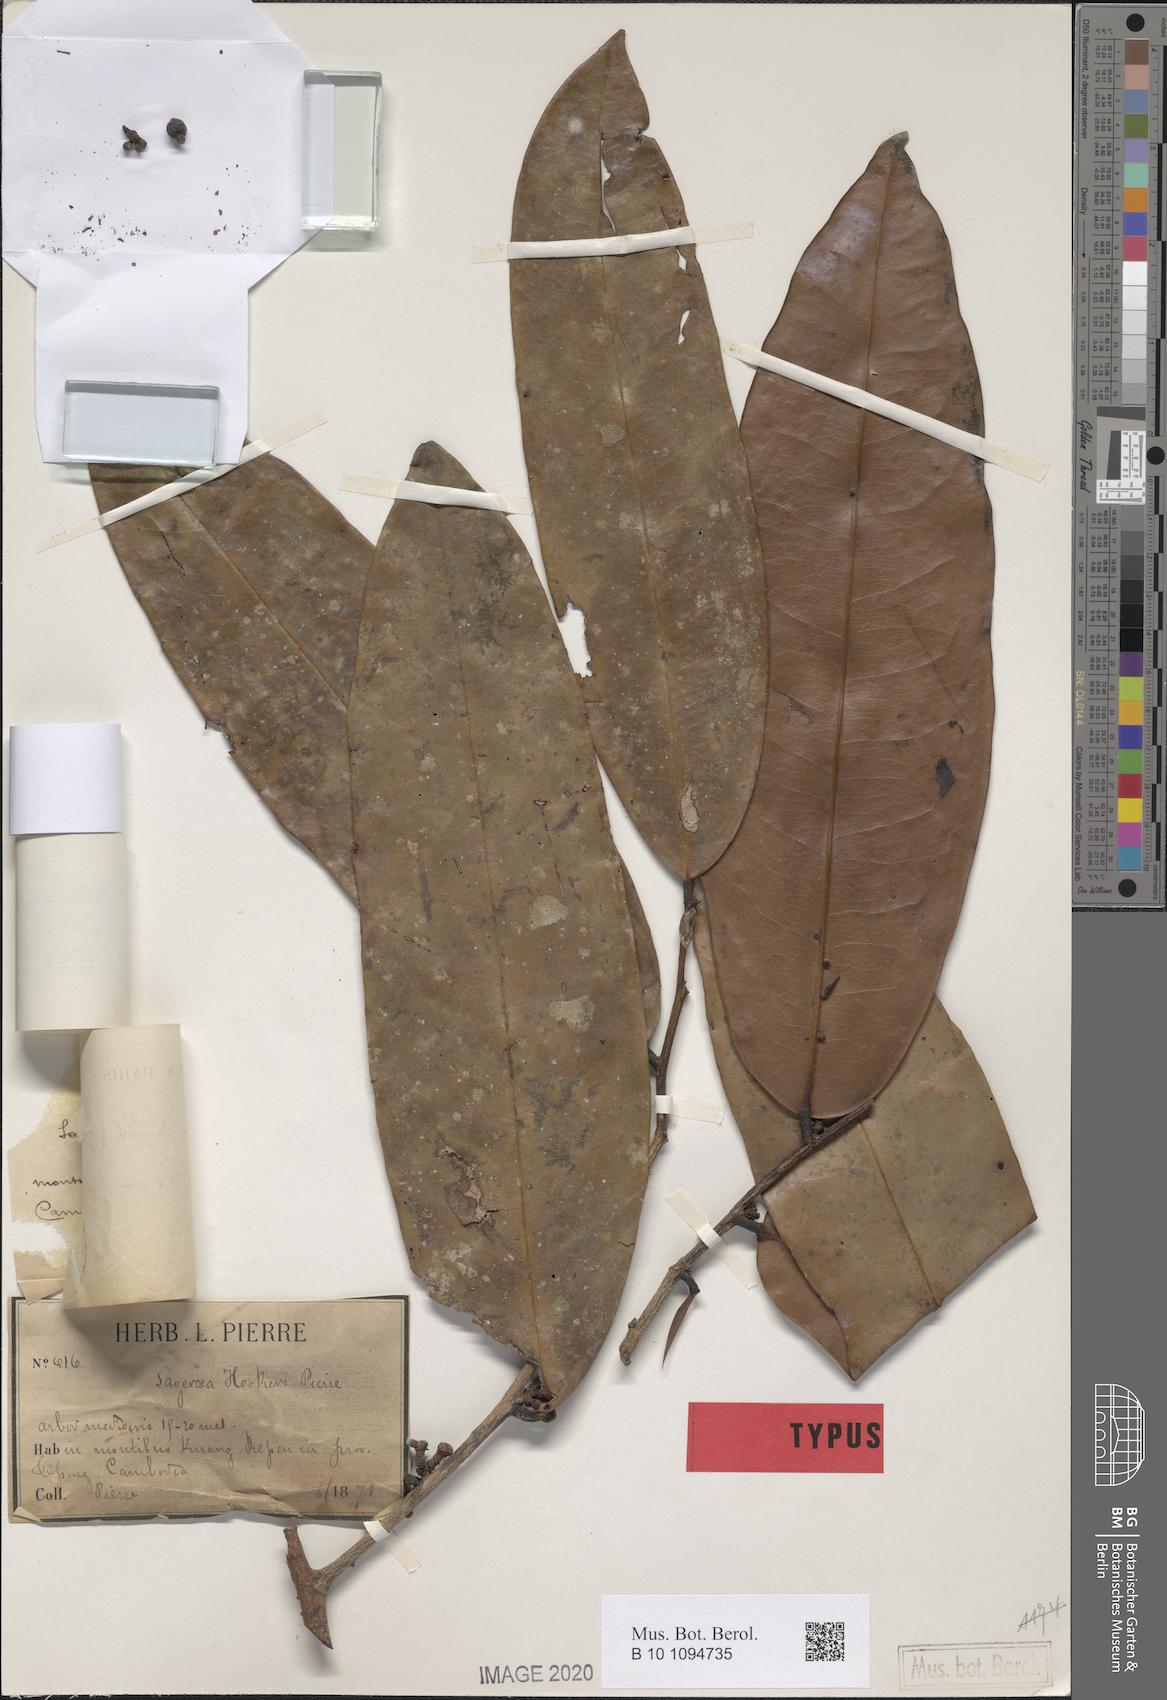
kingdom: Plantae
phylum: Tracheophyta
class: Magnoliopsida
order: Magnoliales
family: Annonaceae
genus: Sageraea
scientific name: Sageraea elliptica
